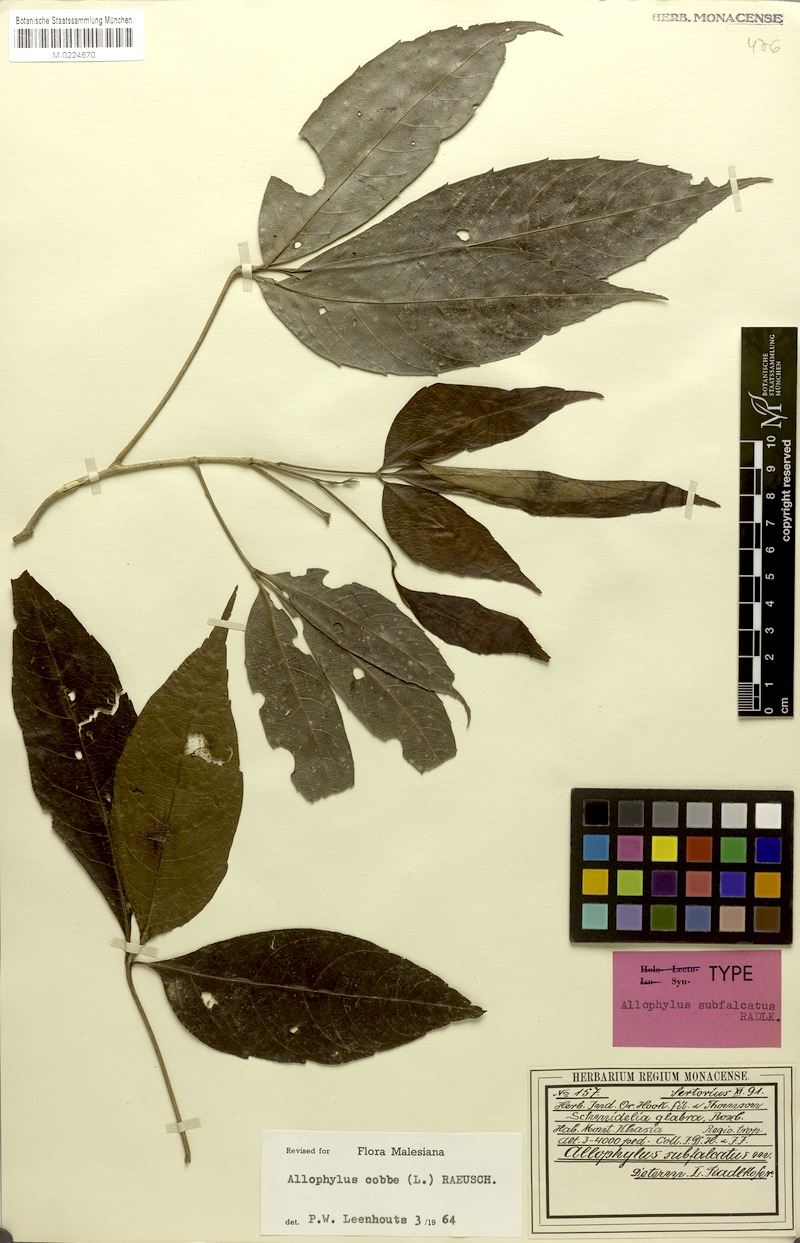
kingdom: Plantae
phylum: Tracheophyta
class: Magnoliopsida
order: Sapindales
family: Sapindaceae
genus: Allophylus
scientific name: Allophylus subfalcatus
